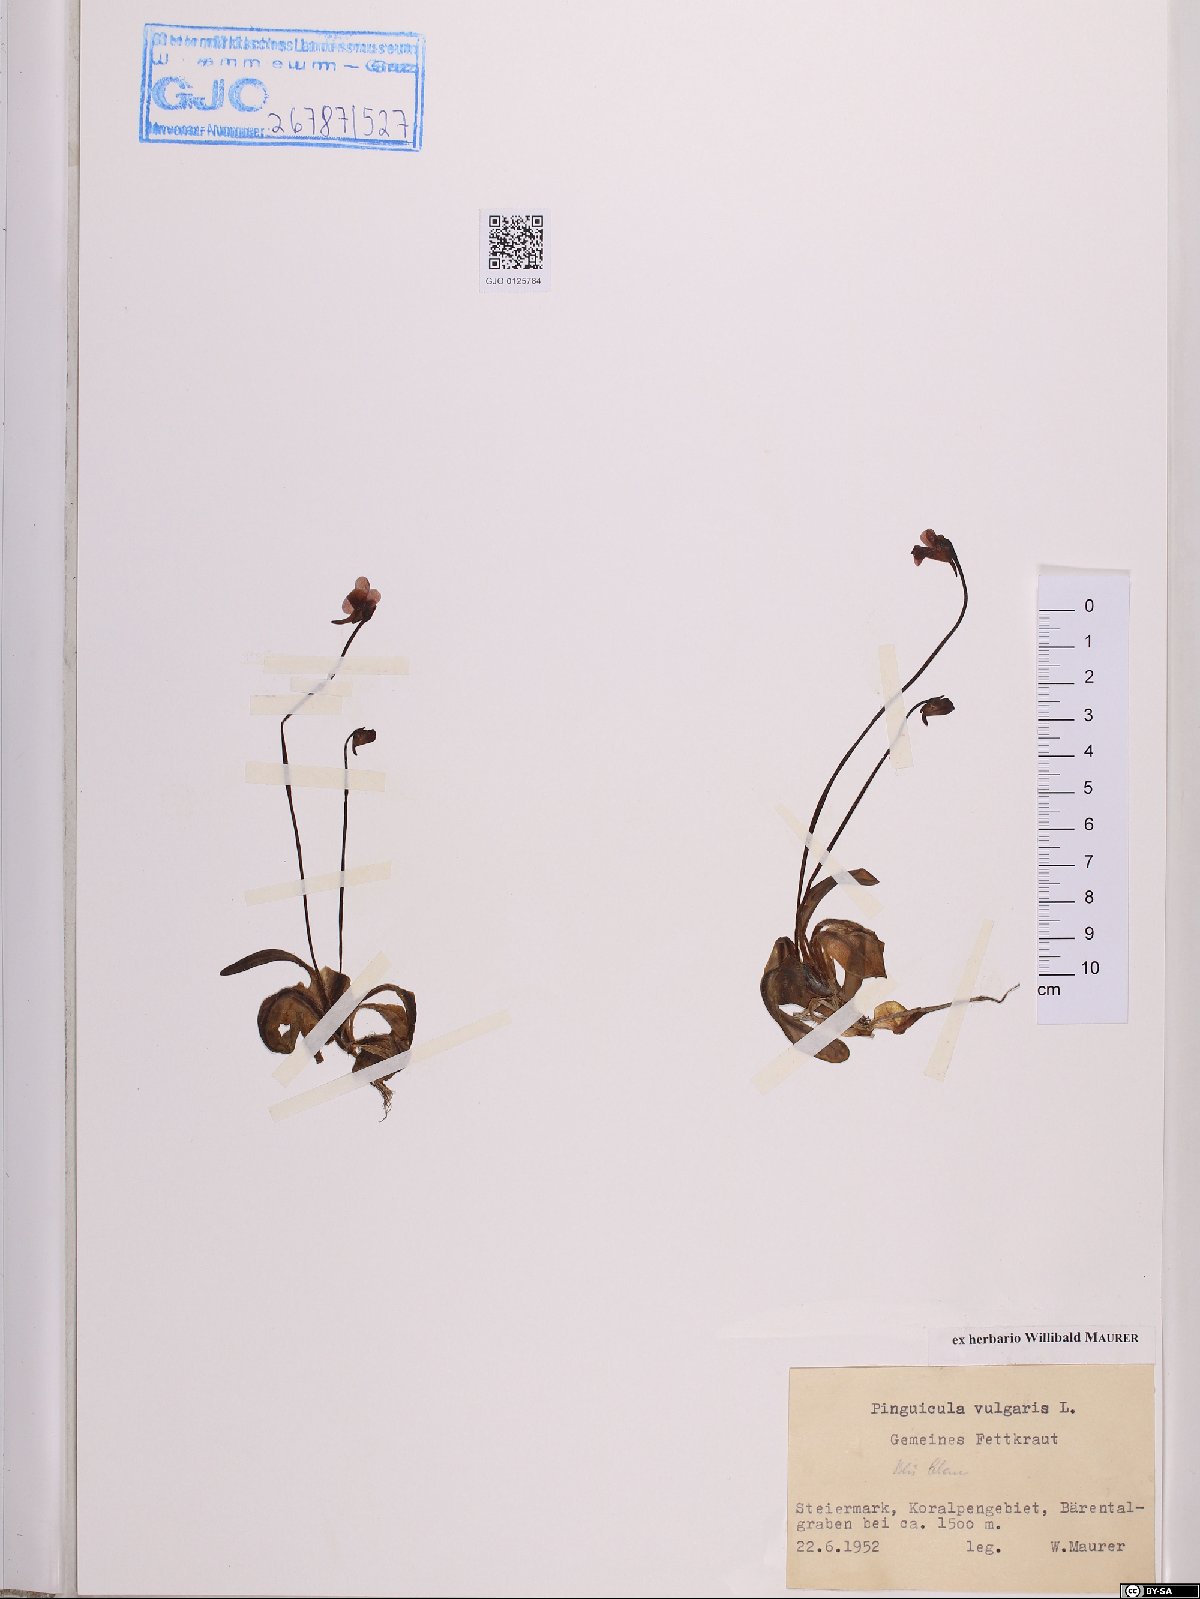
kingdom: Plantae
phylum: Tracheophyta
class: Magnoliopsida
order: Lamiales
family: Lentibulariaceae
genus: Pinguicula
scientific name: Pinguicula vulgaris
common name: Common butterwort
